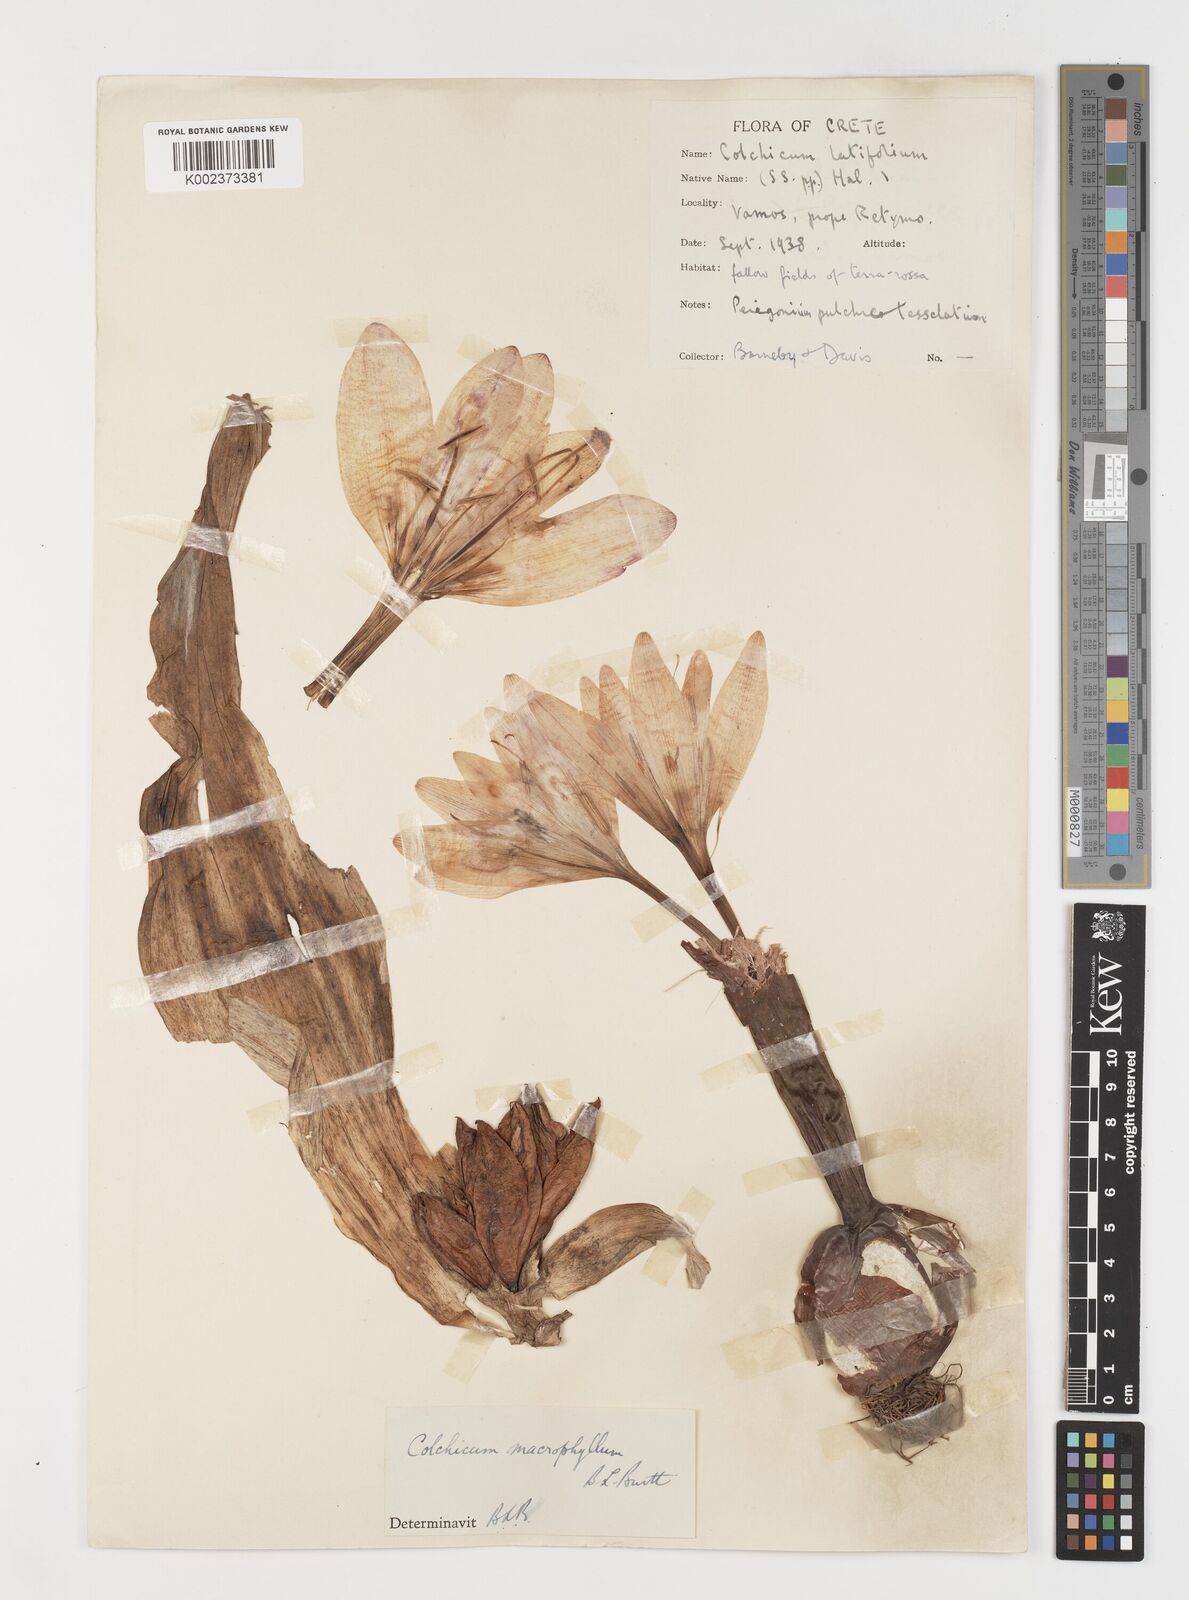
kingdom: Plantae
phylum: Tracheophyta
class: Liliopsida
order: Liliales
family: Colchicaceae
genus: Colchicum
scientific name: Colchicum macrophyllum
